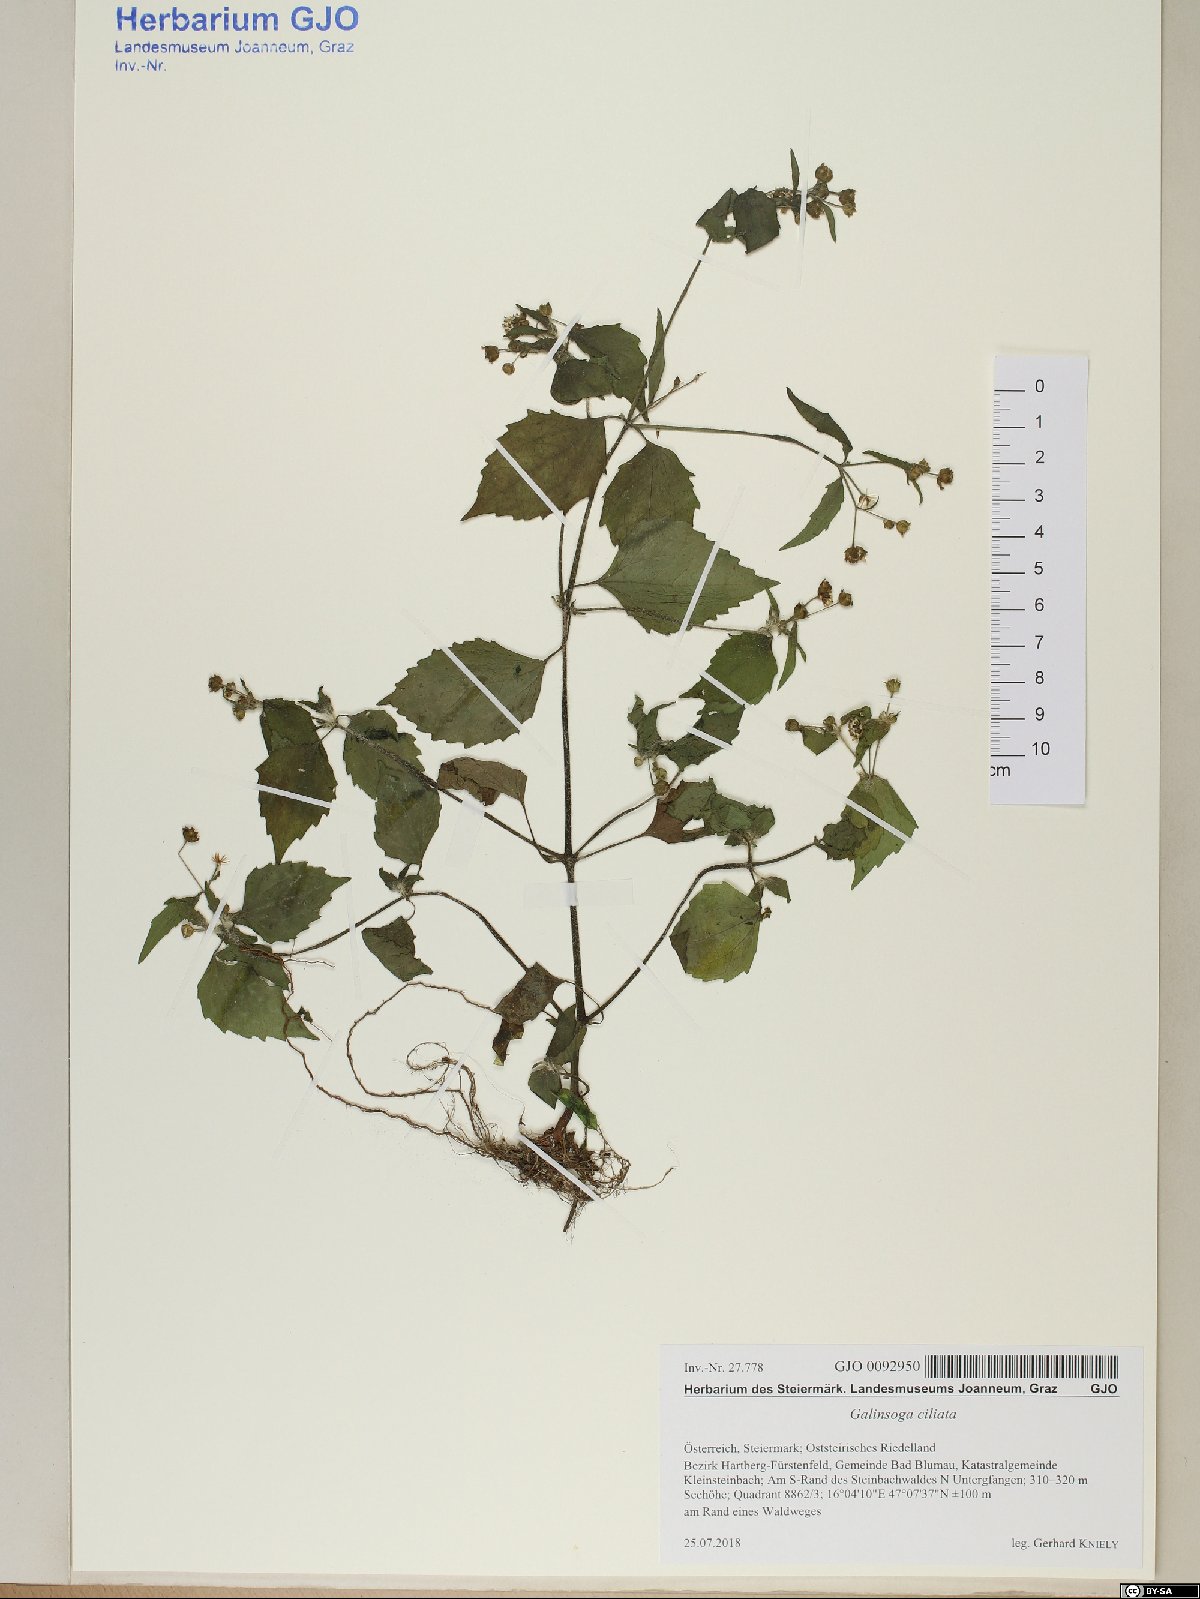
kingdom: Plantae
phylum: Tracheophyta
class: Magnoliopsida
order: Asterales
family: Asteraceae
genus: Galinsoga
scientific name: Galinsoga quadriradiata
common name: Shaggy soldier
